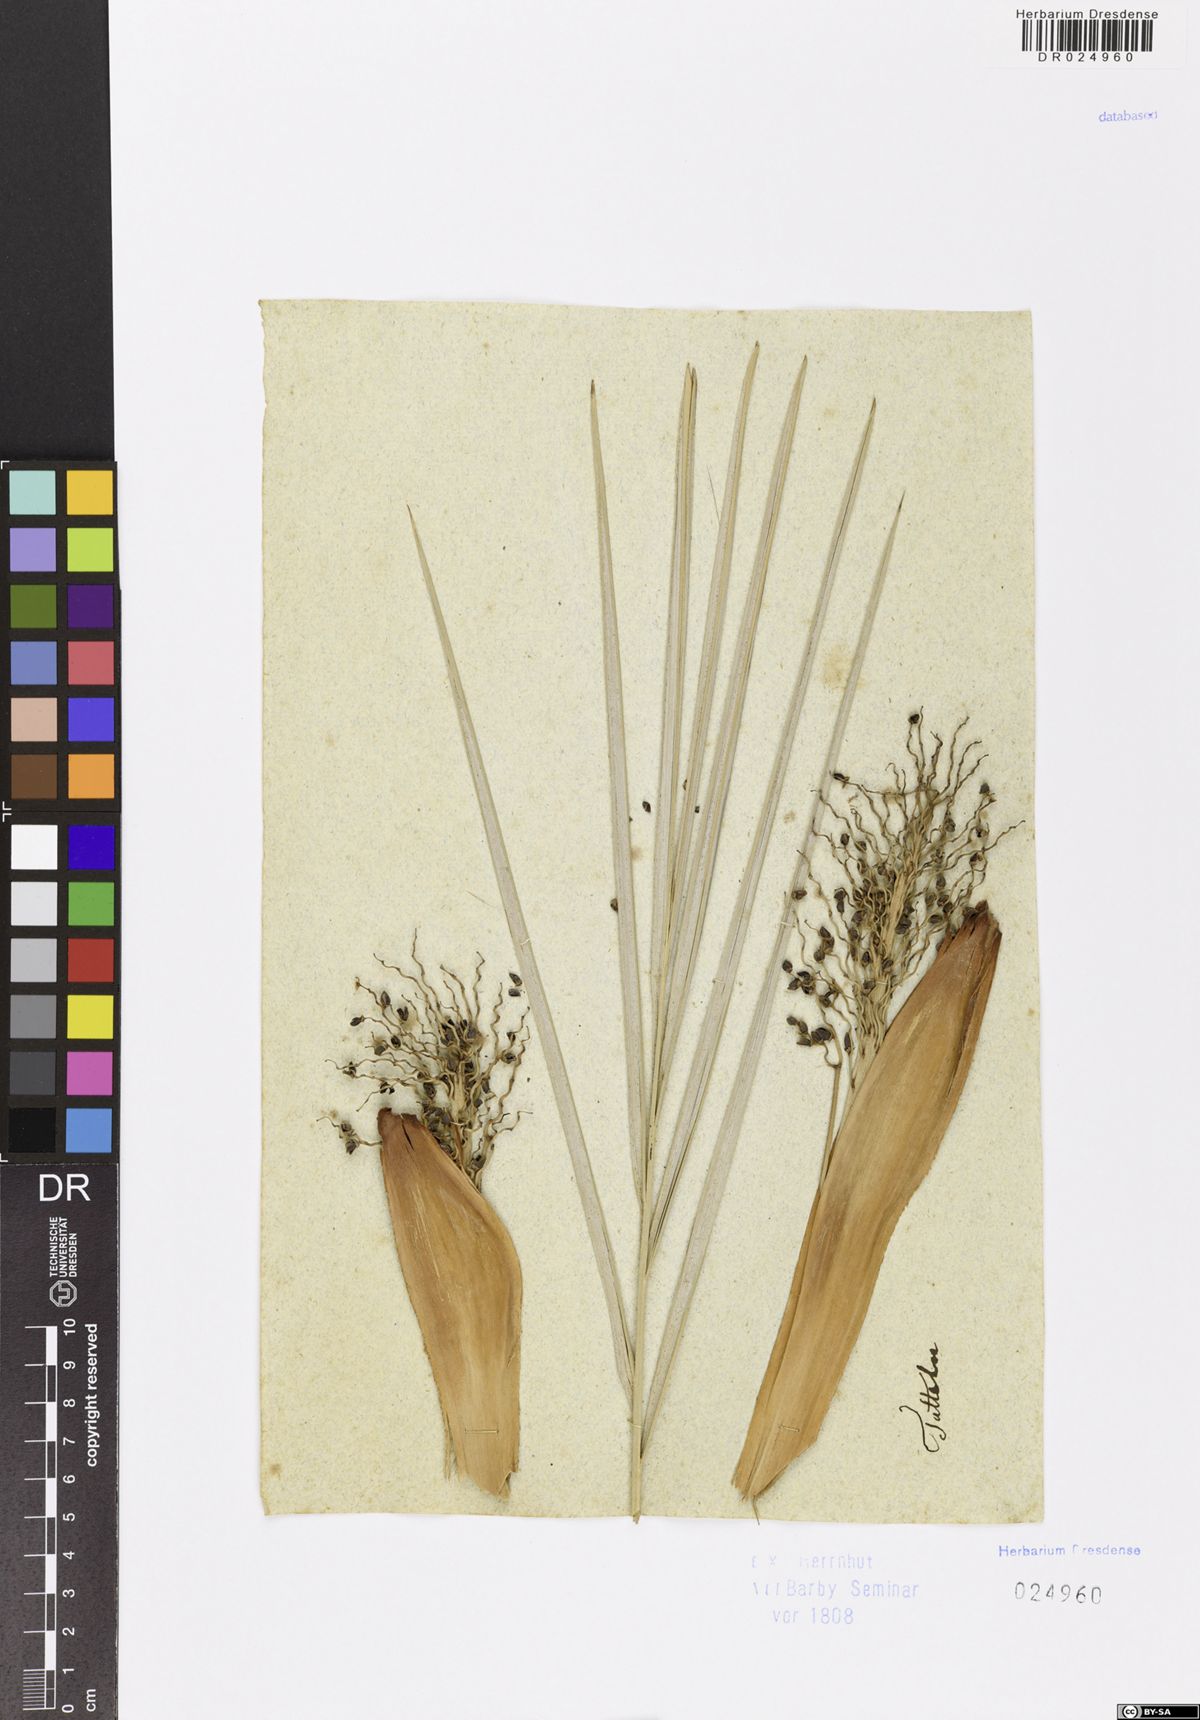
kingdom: Plantae
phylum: Tracheophyta
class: Liliopsida
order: Arecales
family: Arecaceae
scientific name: Arecaceae
